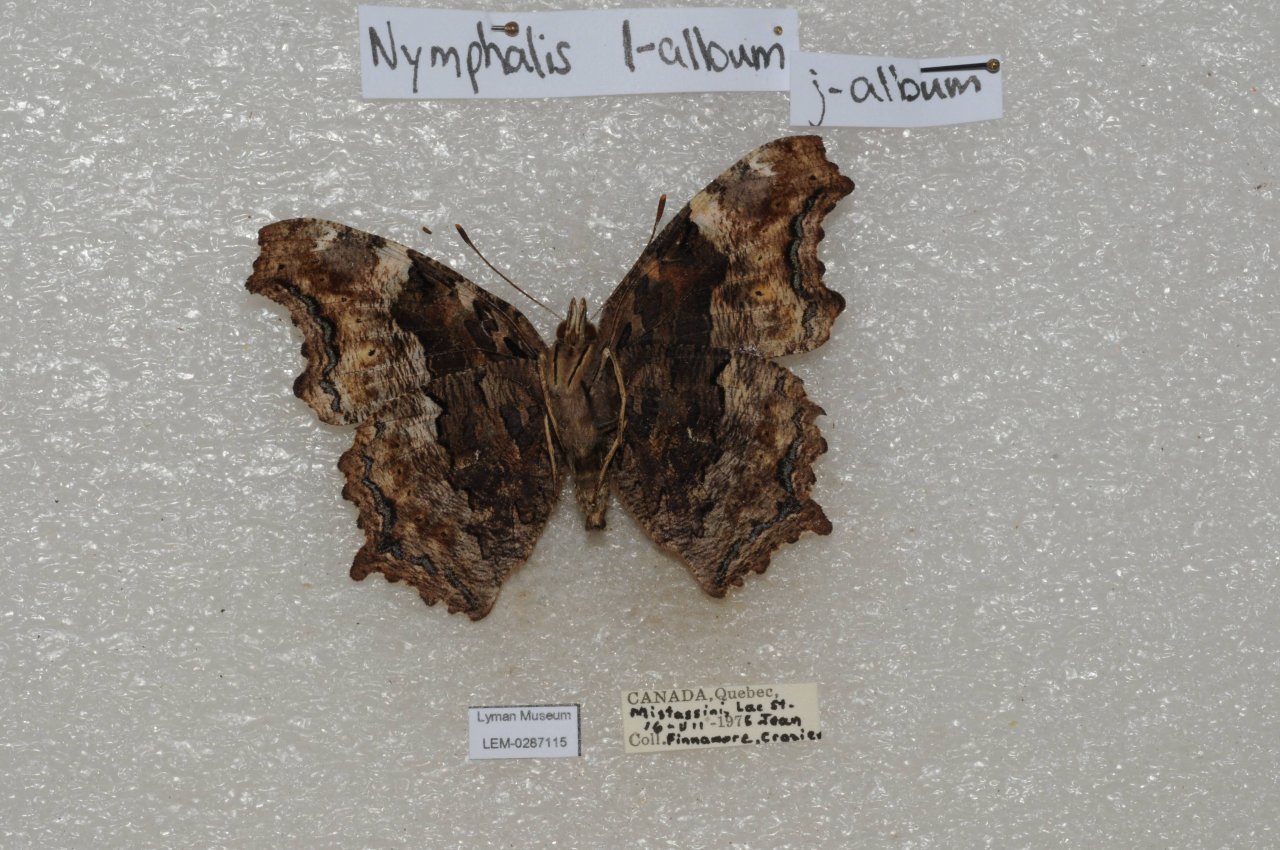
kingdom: Animalia
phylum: Arthropoda
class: Insecta
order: Lepidoptera
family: Nymphalidae
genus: Polygonia
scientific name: Polygonia vaualbum
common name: Compton Tortoiseshell
